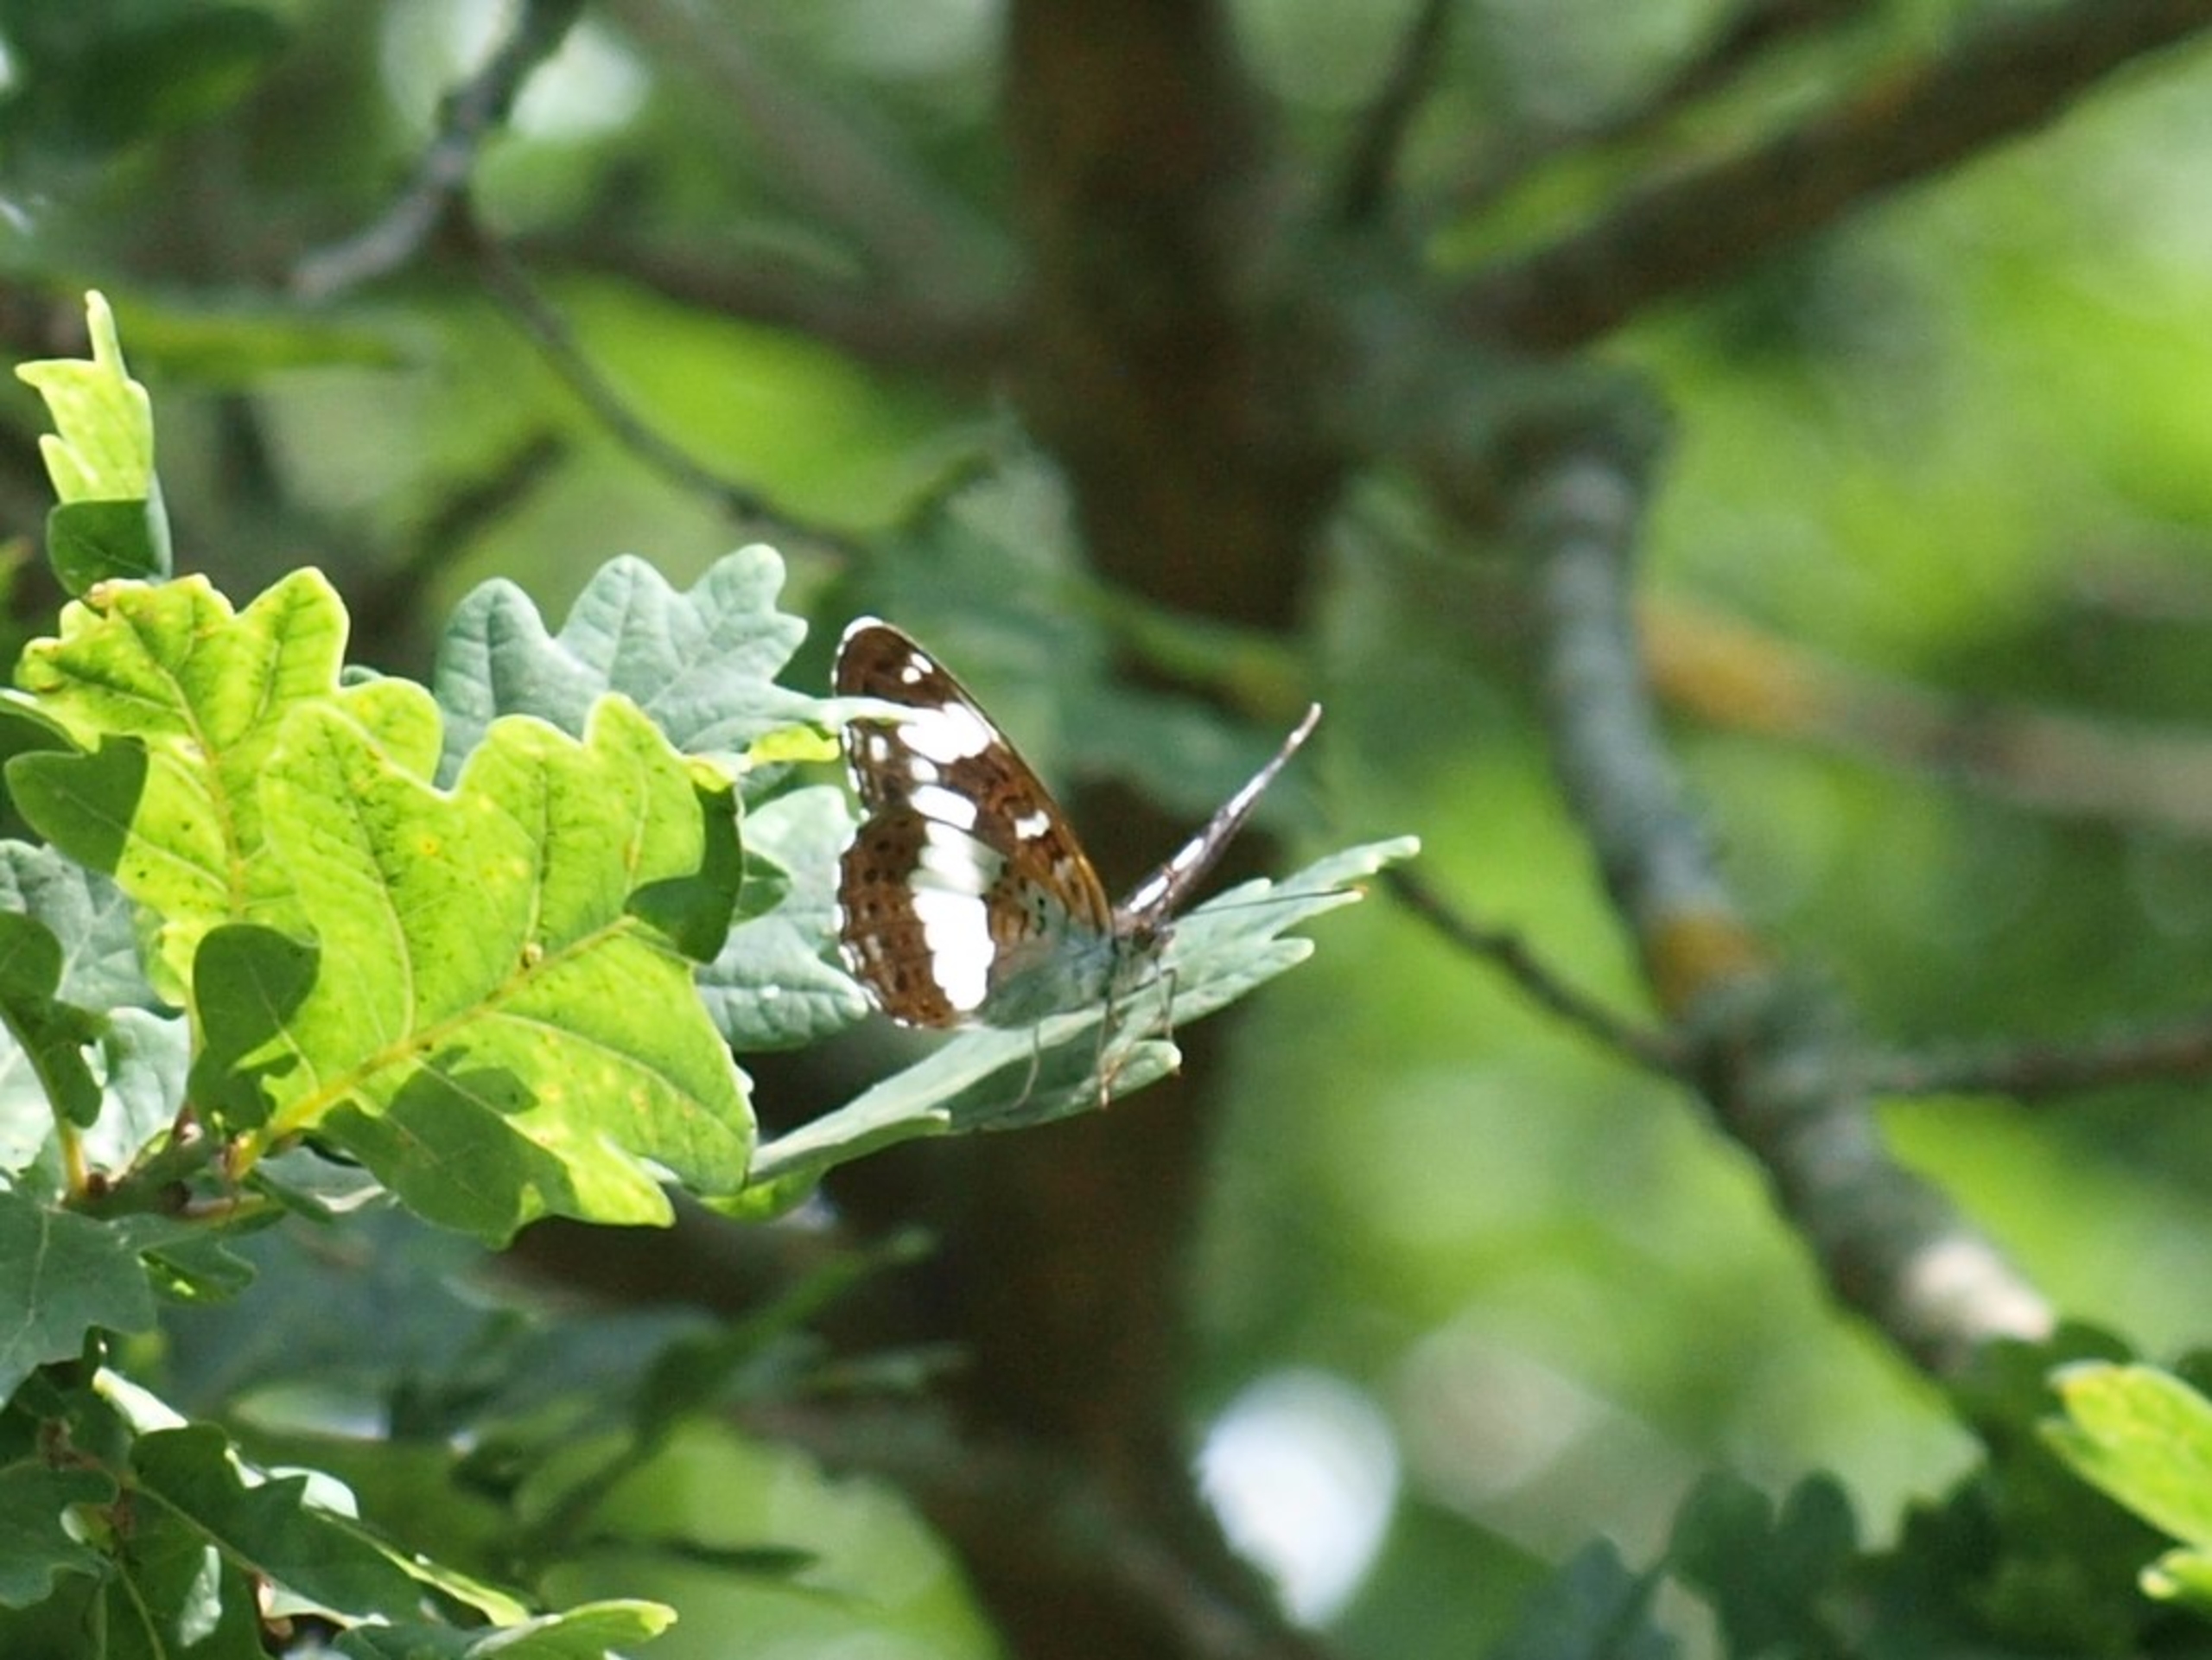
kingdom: Animalia
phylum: Arthropoda
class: Insecta
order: Lepidoptera
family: Nymphalidae
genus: Ladoga
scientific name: Ladoga camilla
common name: Hvid admiral
